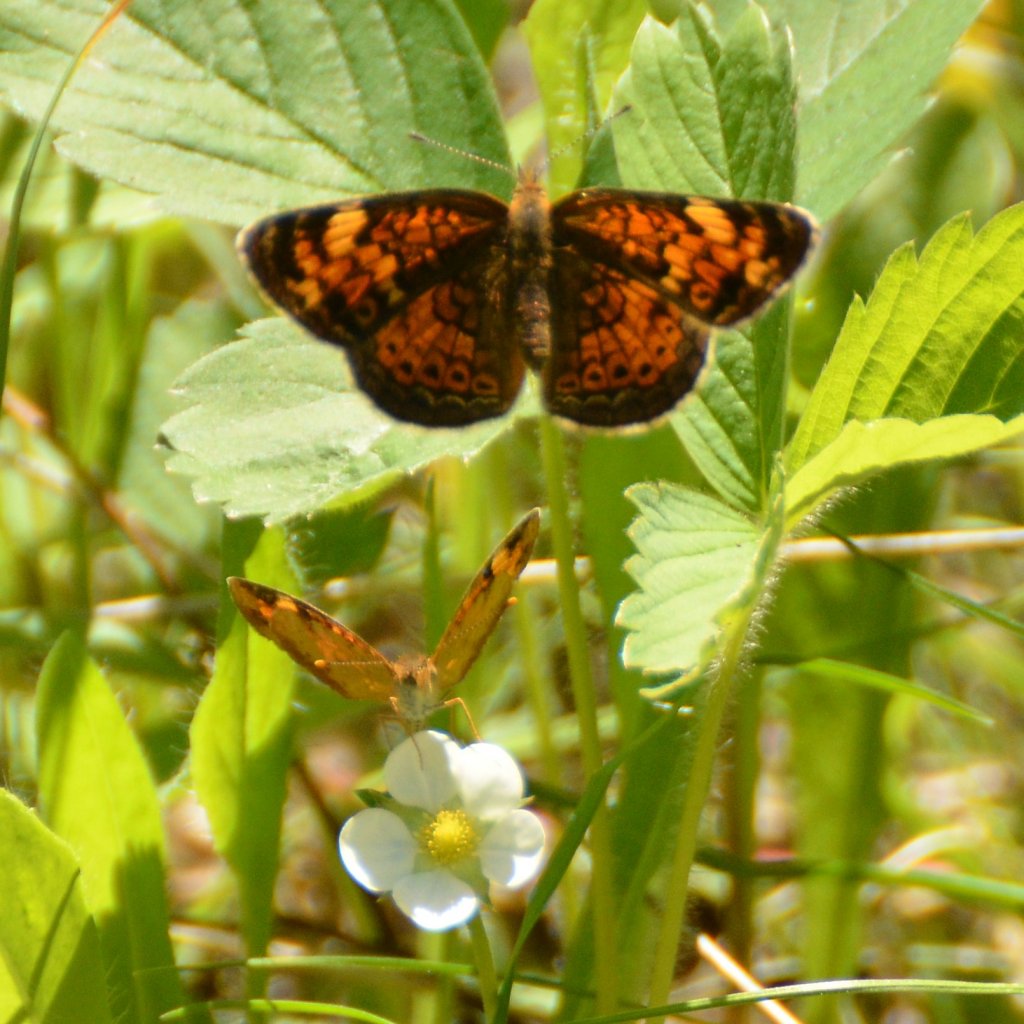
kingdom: Animalia
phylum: Arthropoda
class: Insecta
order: Lepidoptera
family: Nymphalidae
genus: Phyciodes
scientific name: Phyciodes tharos
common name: Northern Crescent
